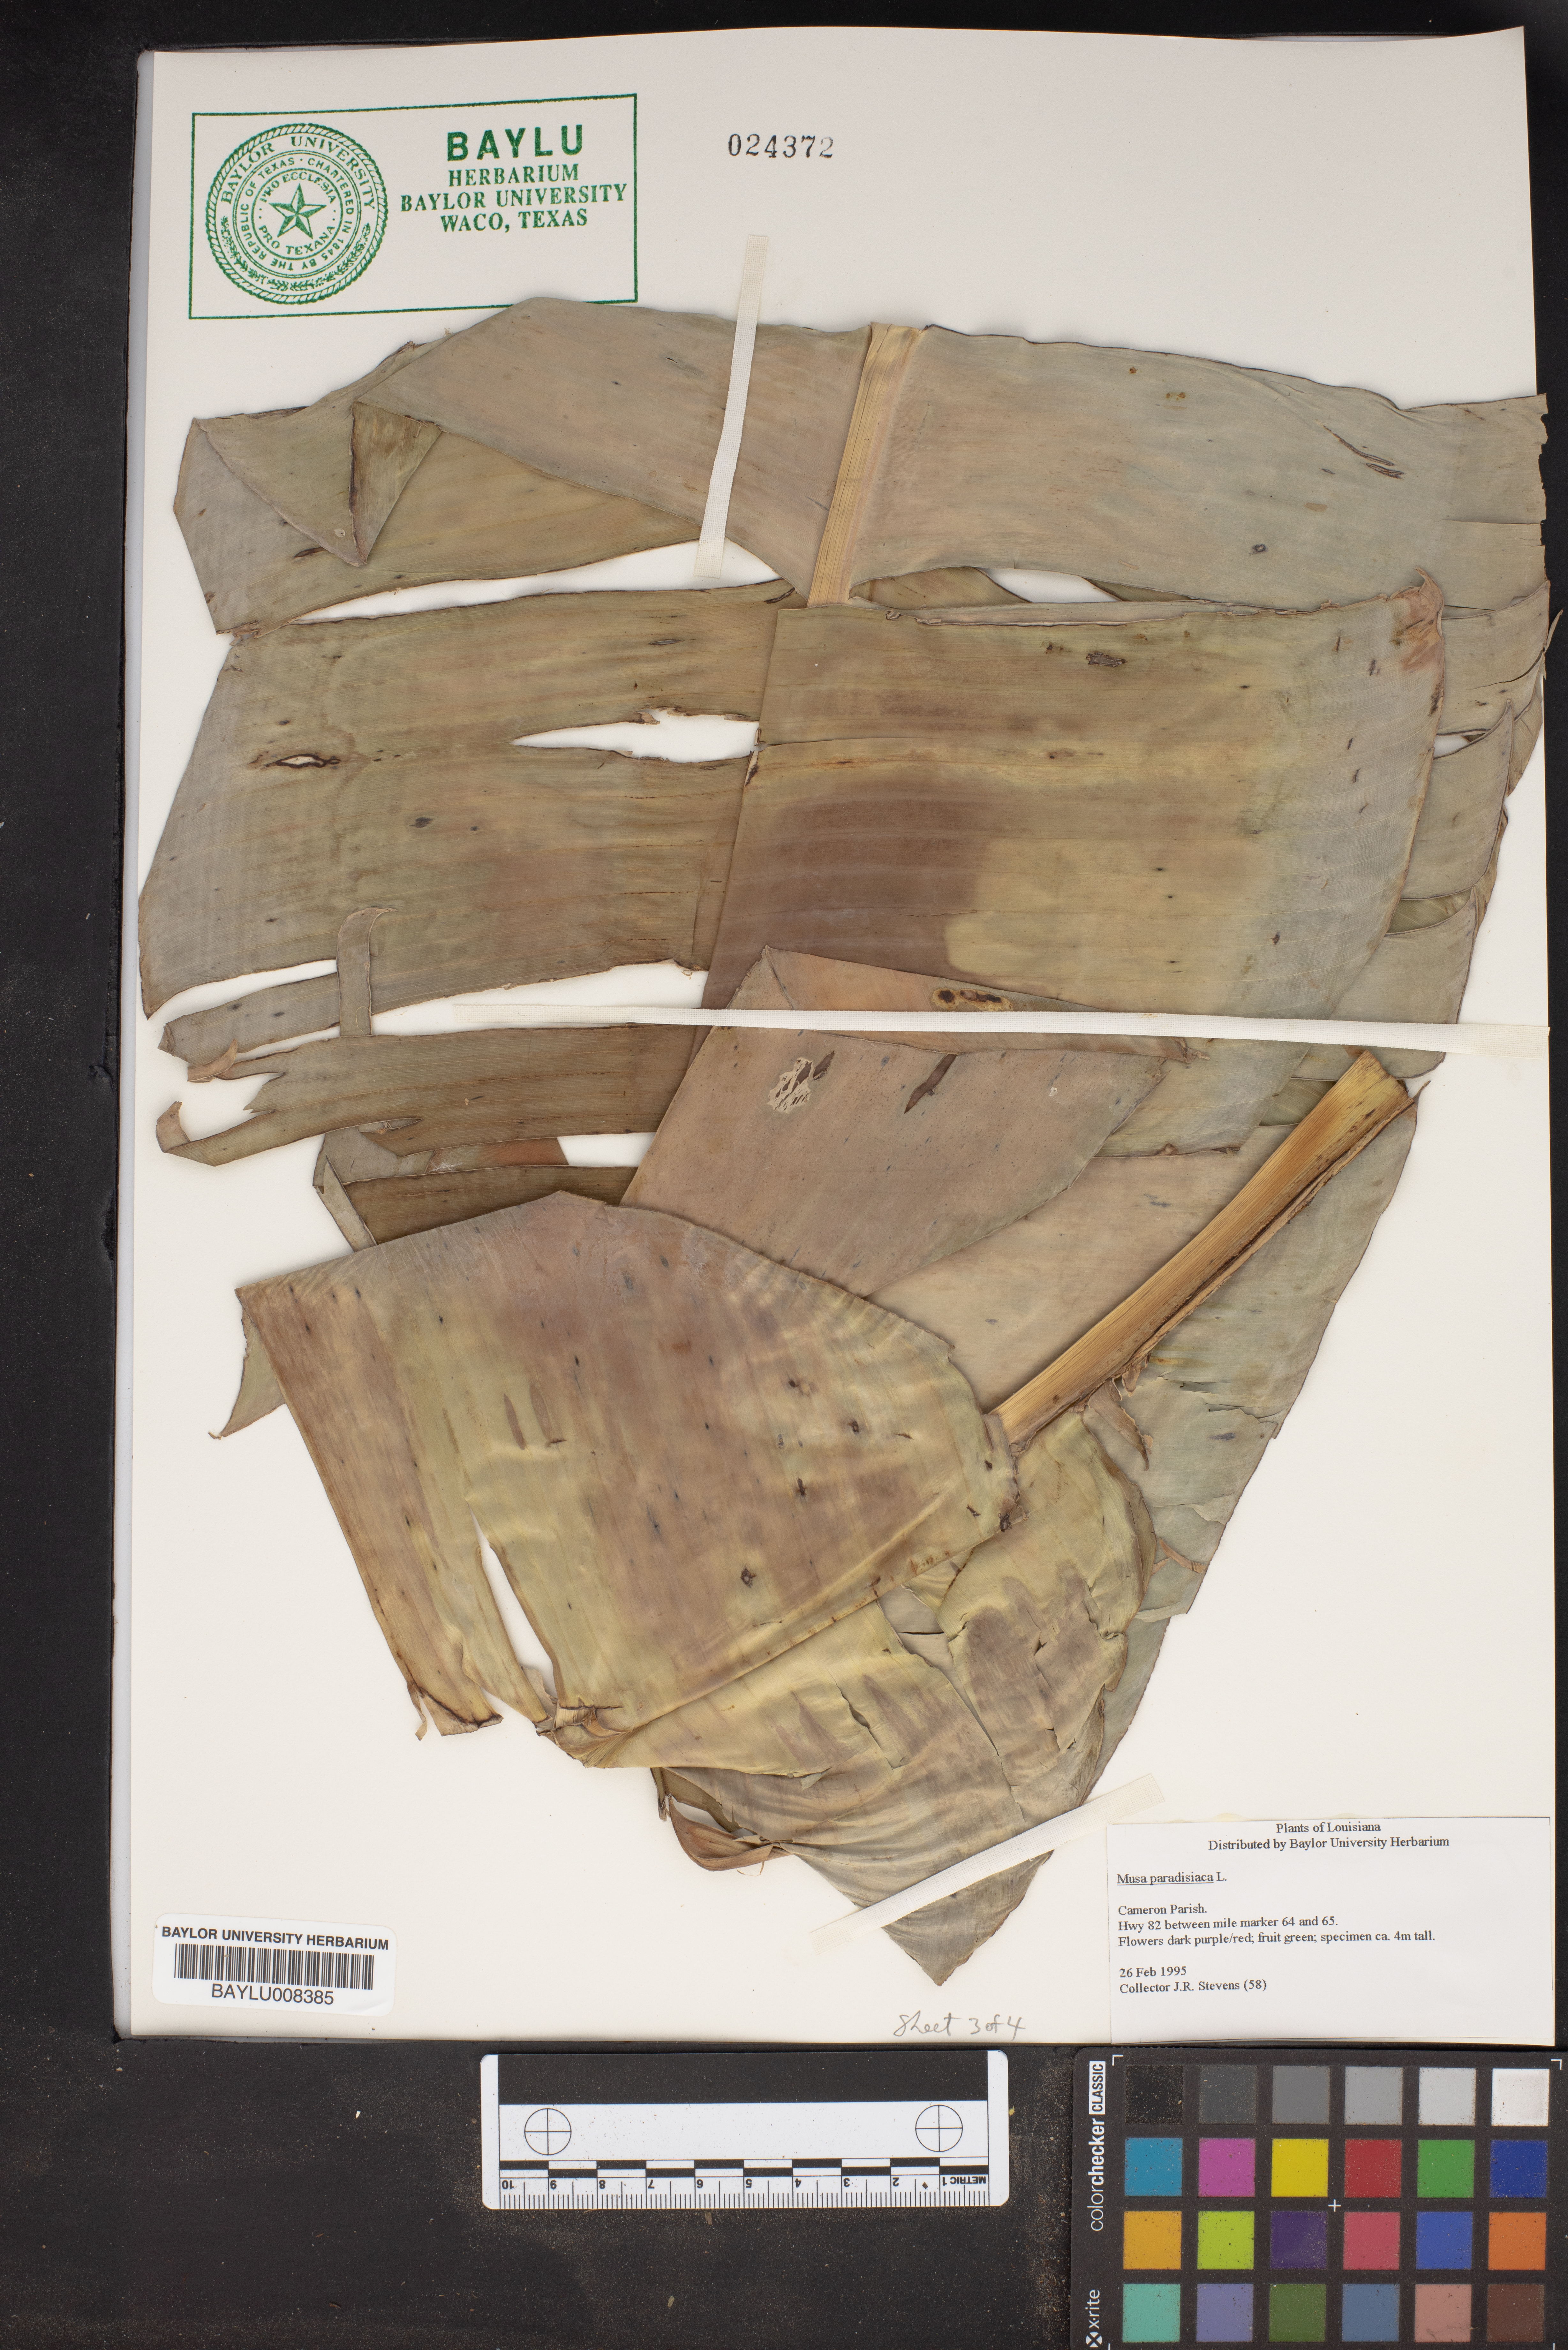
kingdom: Plantae
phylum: Tracheophyta
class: Liliopsida
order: Zingiberales
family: Musaceae
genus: Musa
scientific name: Musa paradisiaca
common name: French plantain
